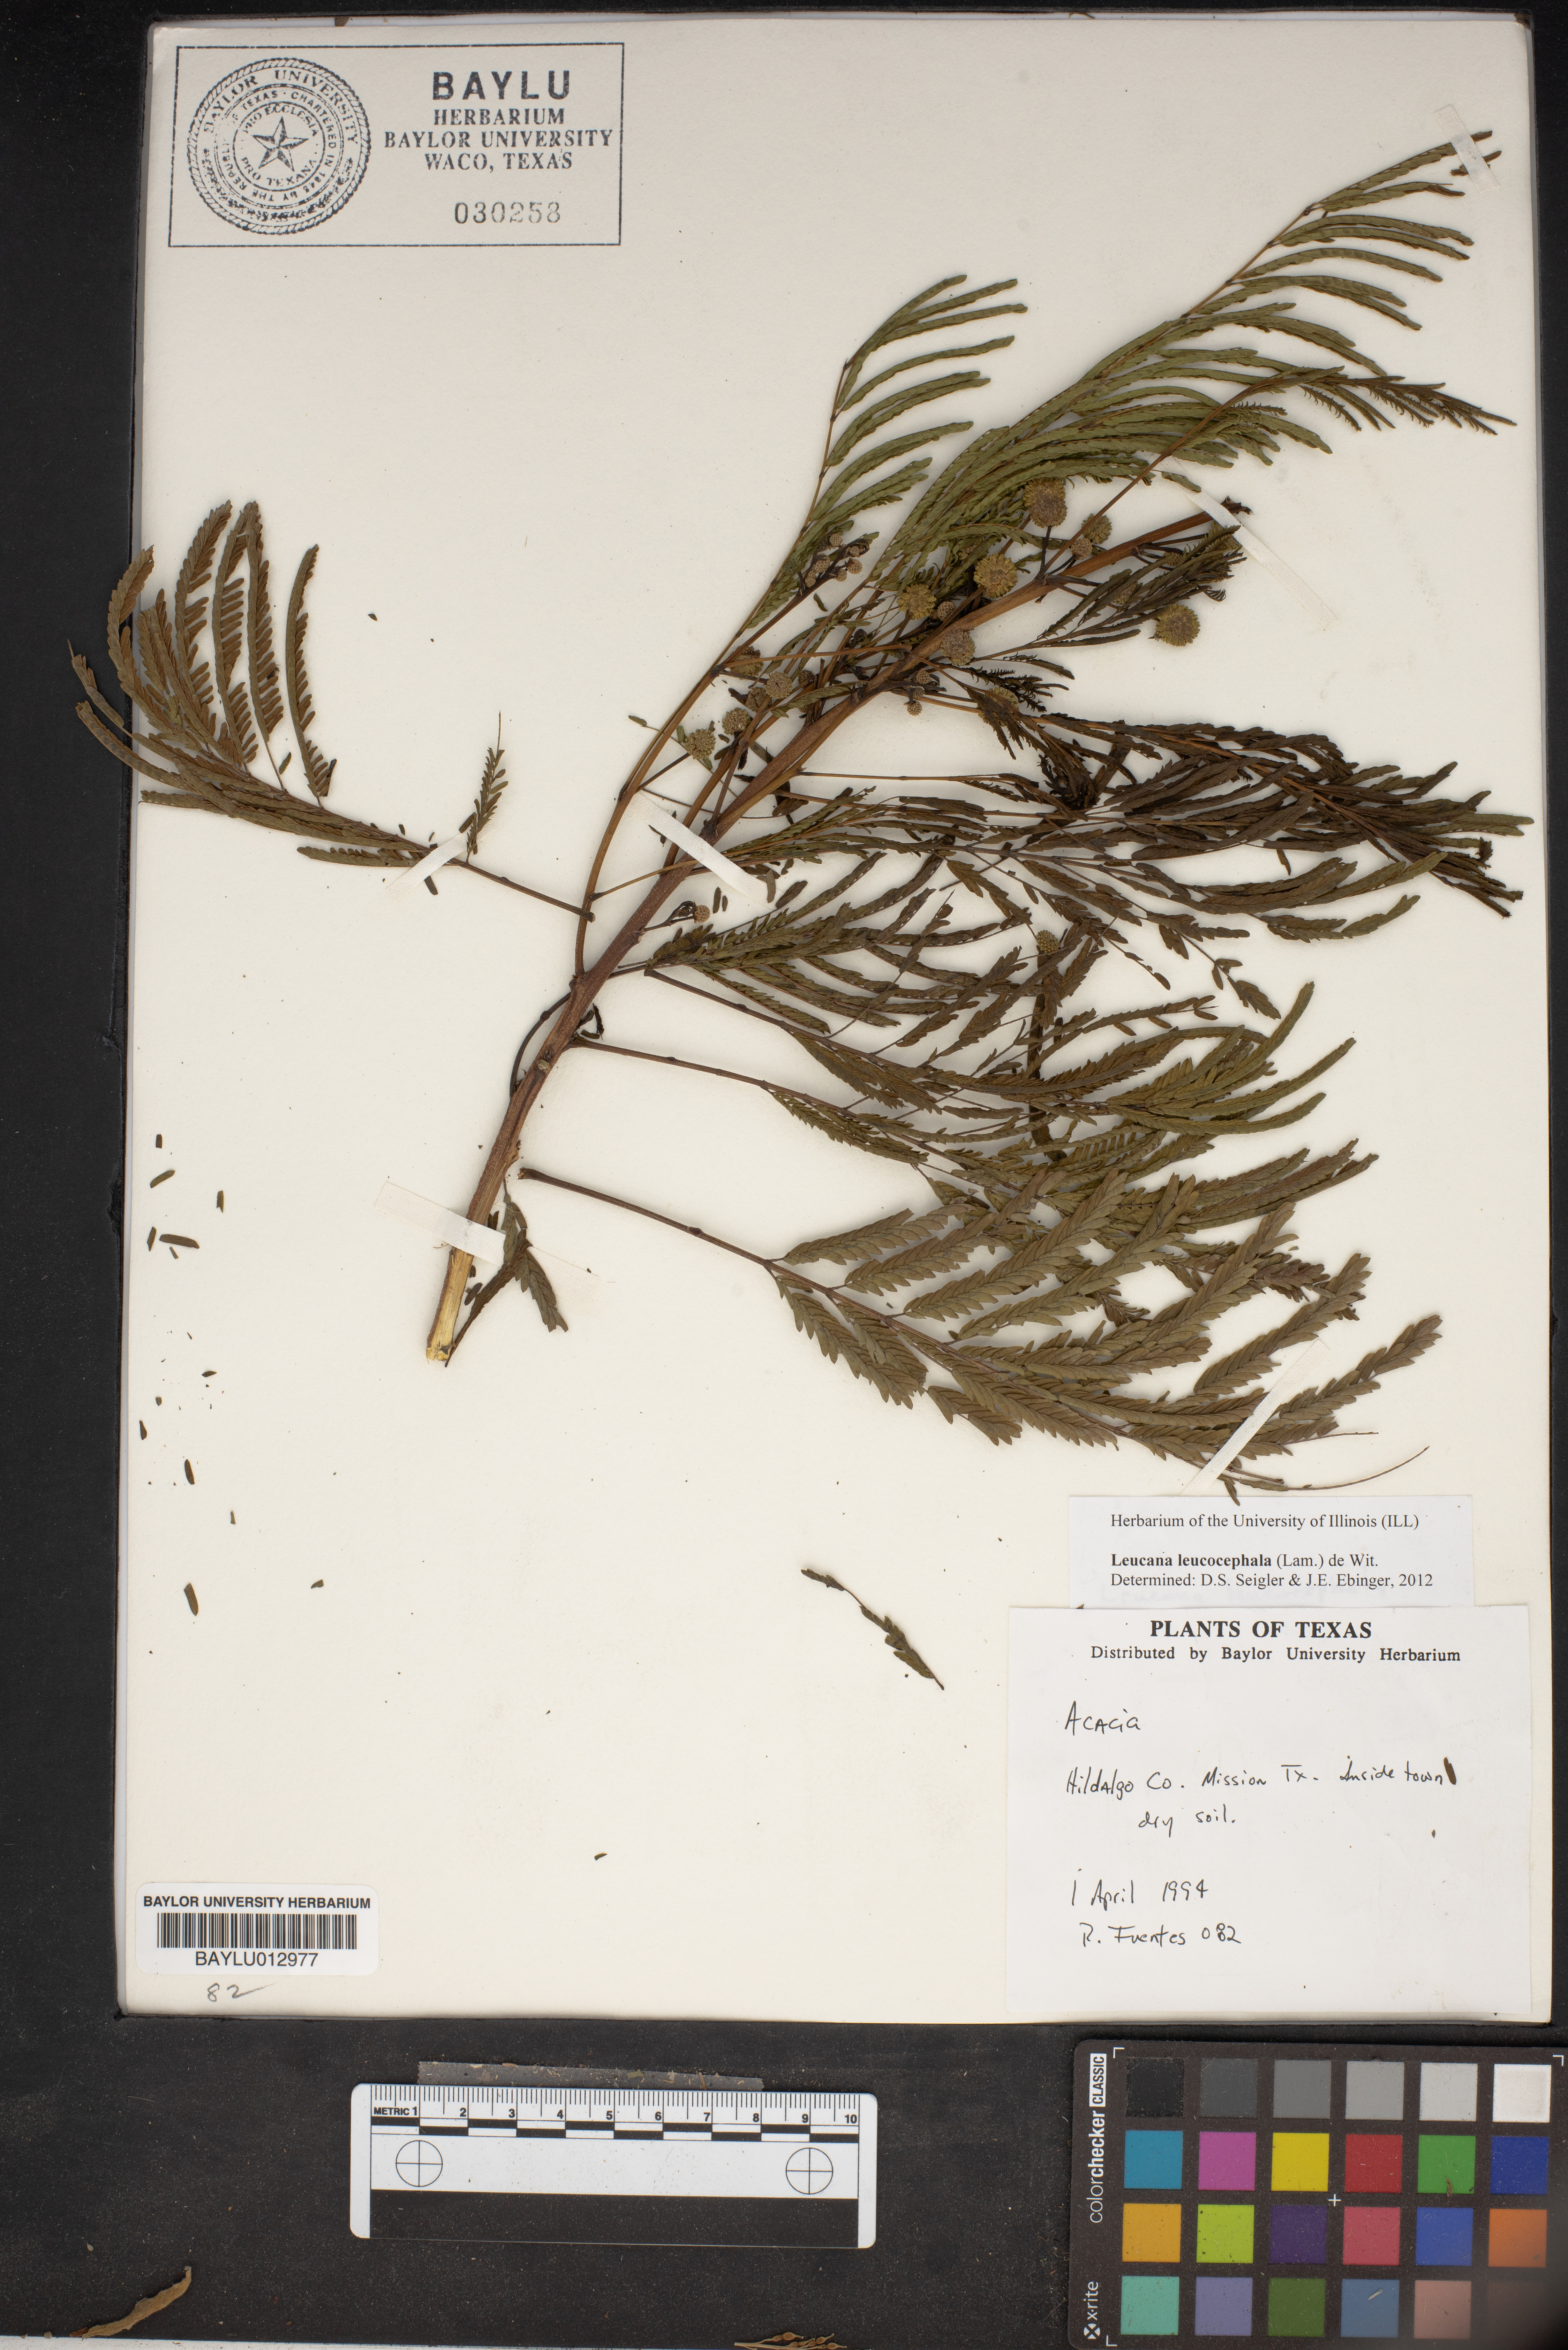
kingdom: Plantae
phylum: Tracheophyta
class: Magnoliopsida
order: Fabales
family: Fabaceae
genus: Leucaena
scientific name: Leucaena leucocephala
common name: White leadtree
